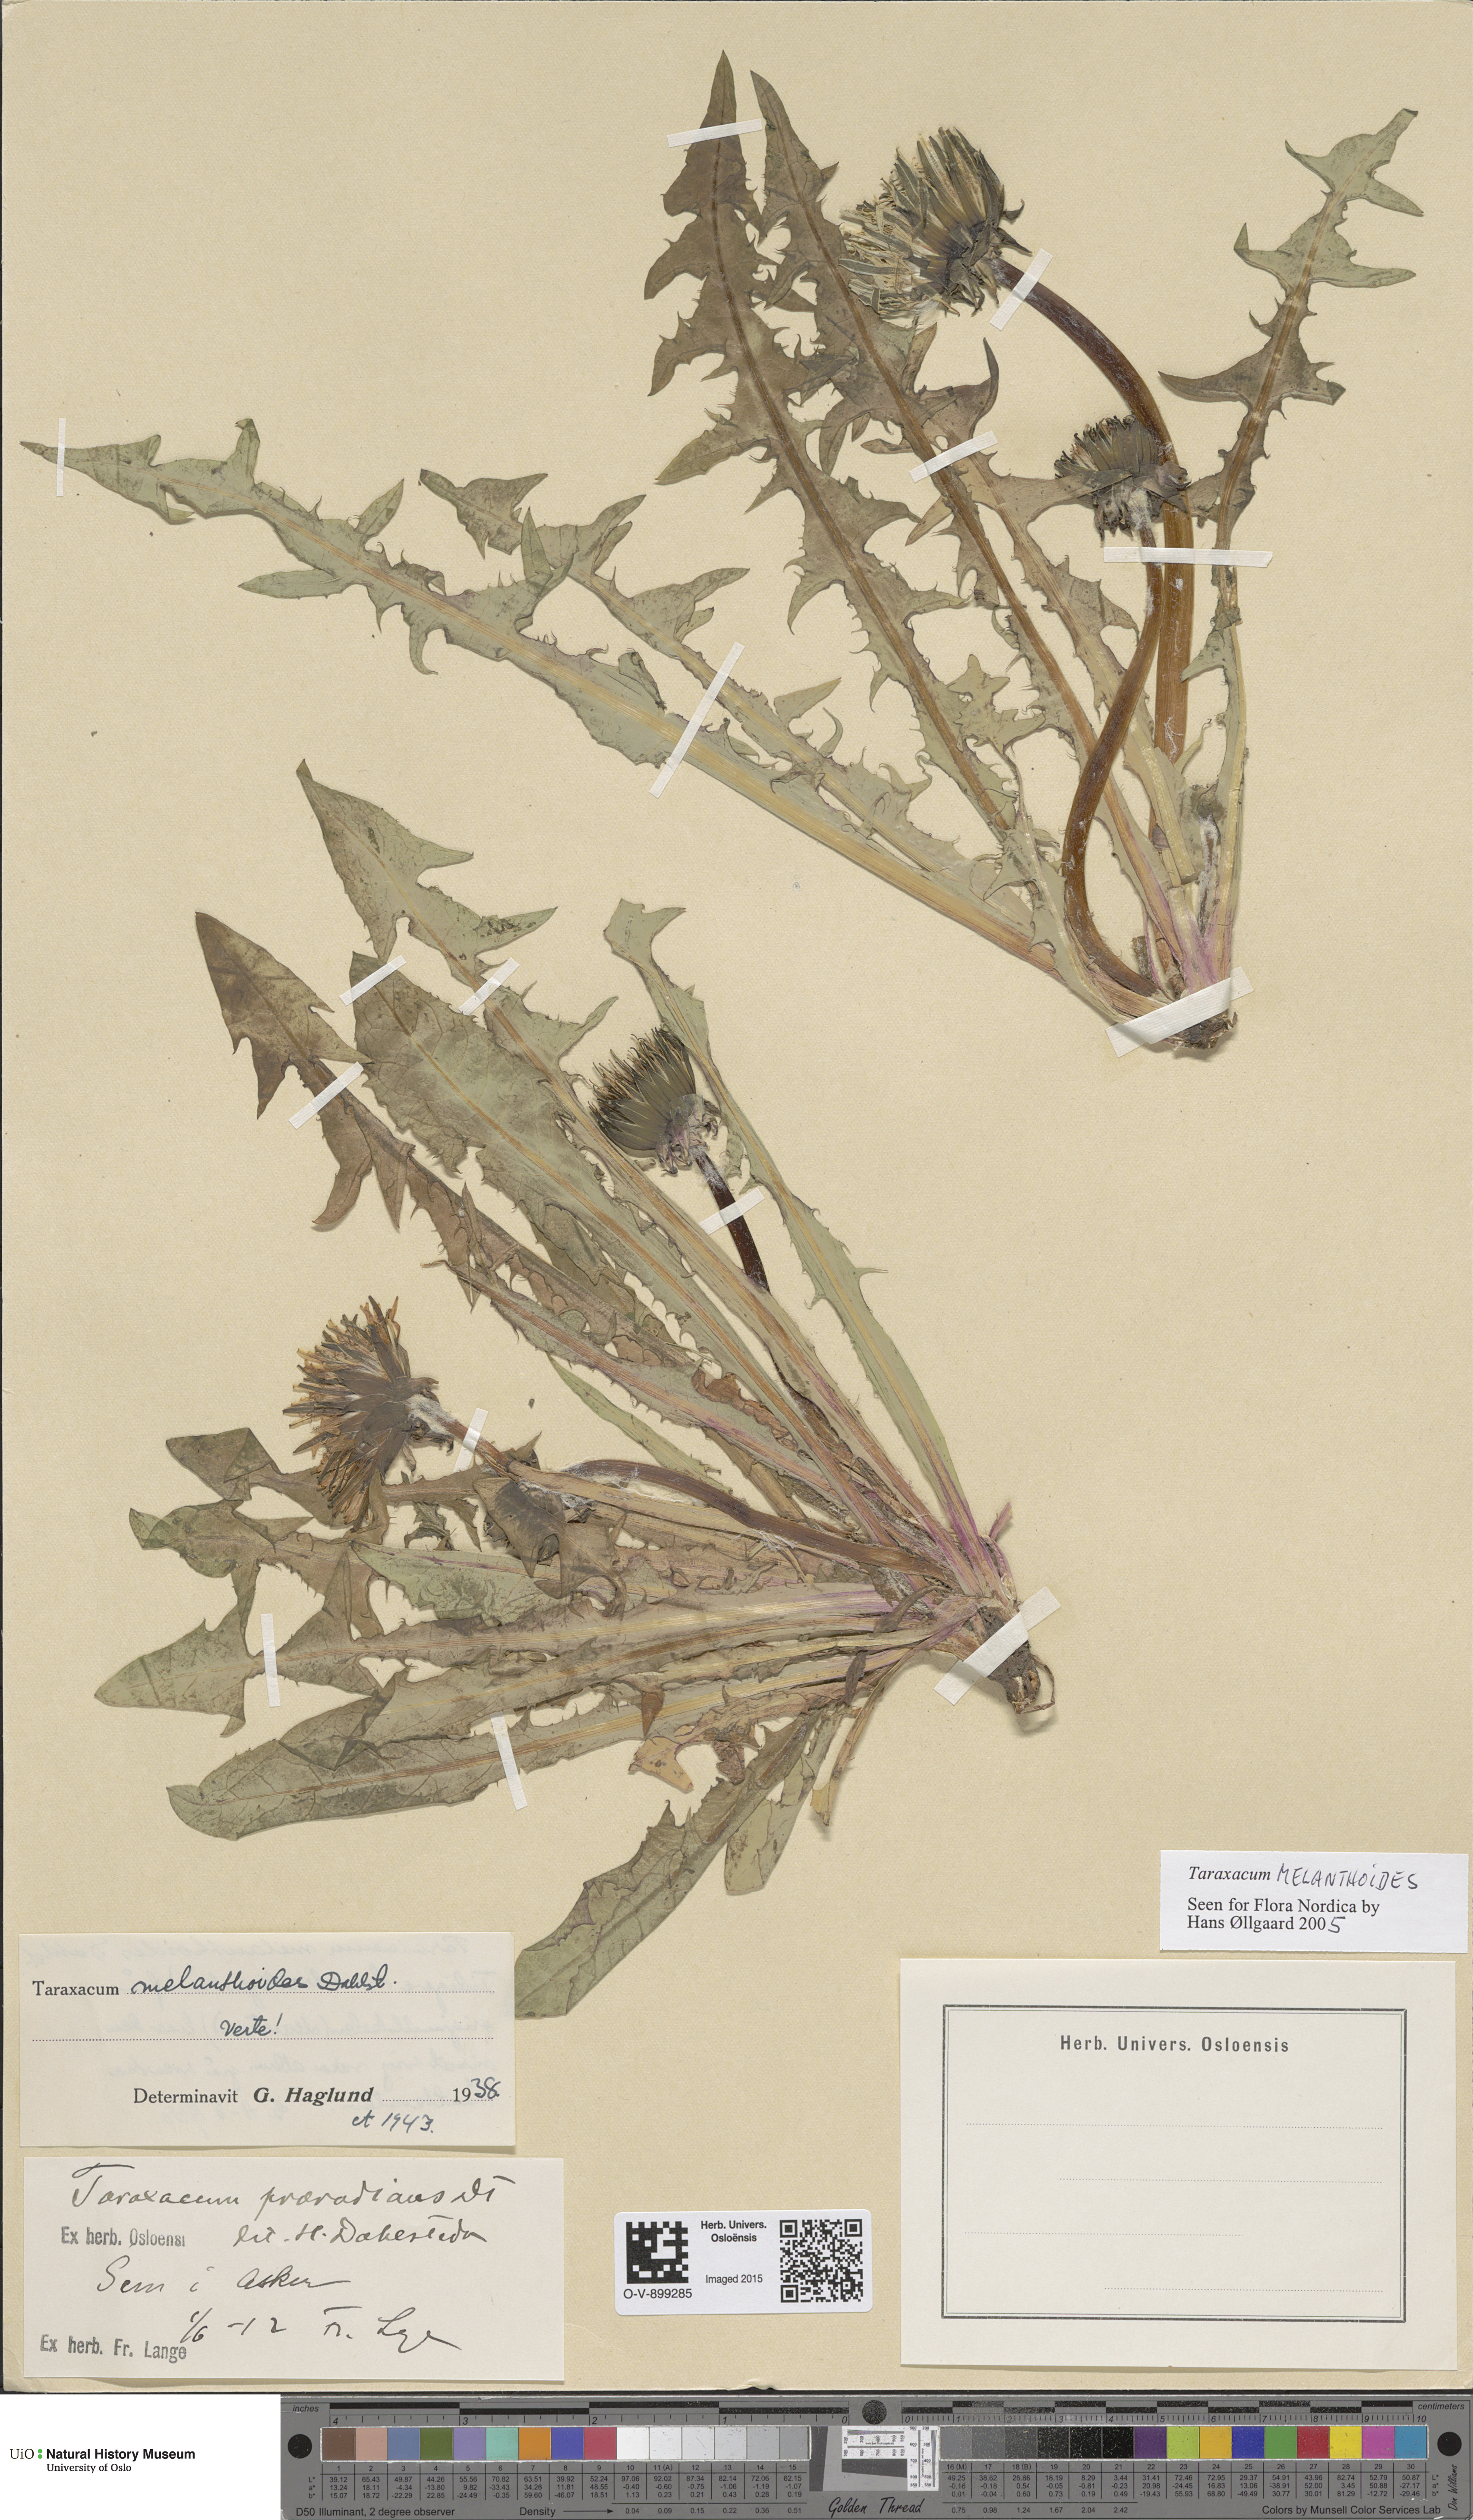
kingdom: Plantae
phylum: Tracheophyta
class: Magnoliopsida
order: Asterales
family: Asteraceae
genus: Taraxacum
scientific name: Taraxacum melanthoides
